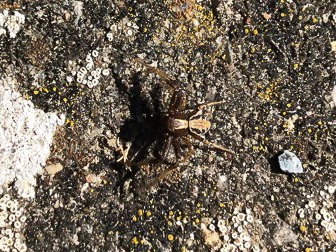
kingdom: Animalia
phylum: Arthropoda
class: Arachnida
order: Araneae
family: Thomisidae
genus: Xysticus
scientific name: Xysticus
